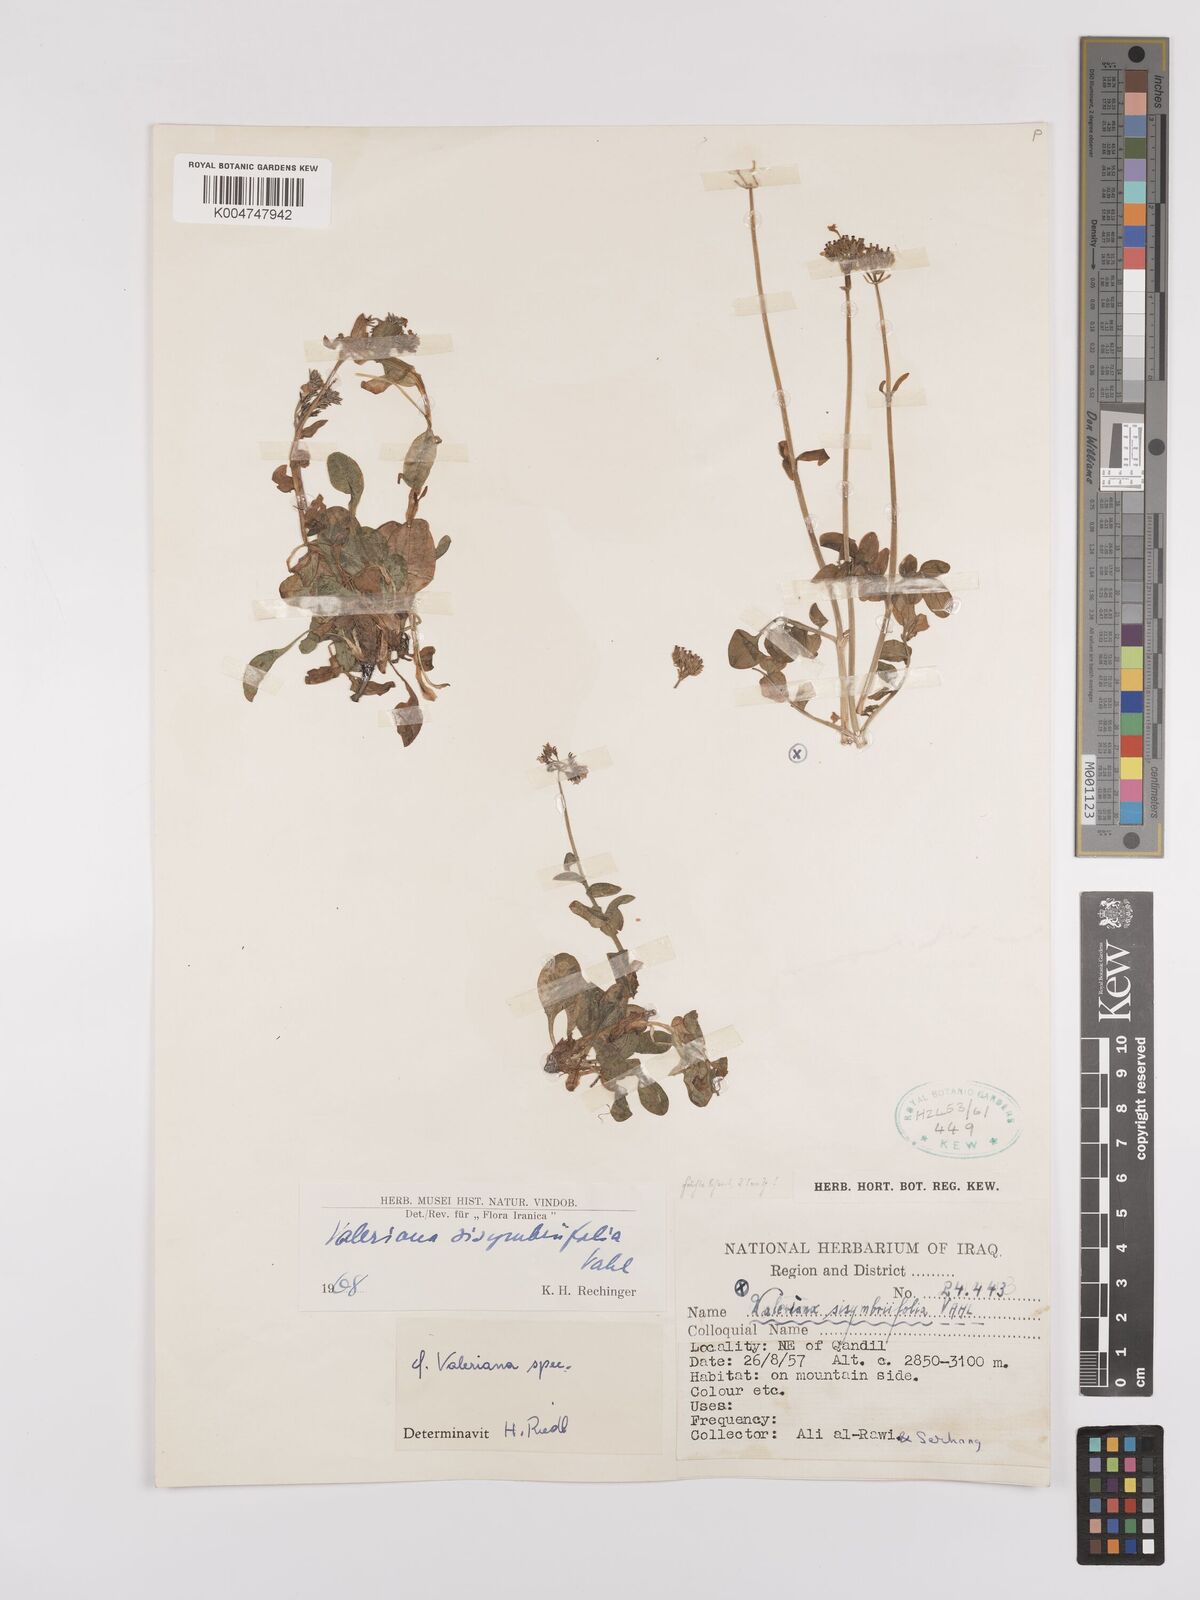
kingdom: Plantae
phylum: Tracheophyta
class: Magnoliopsida
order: Dipsacales
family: Caprifoliaceae
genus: Valeriana
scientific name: Valeriana
